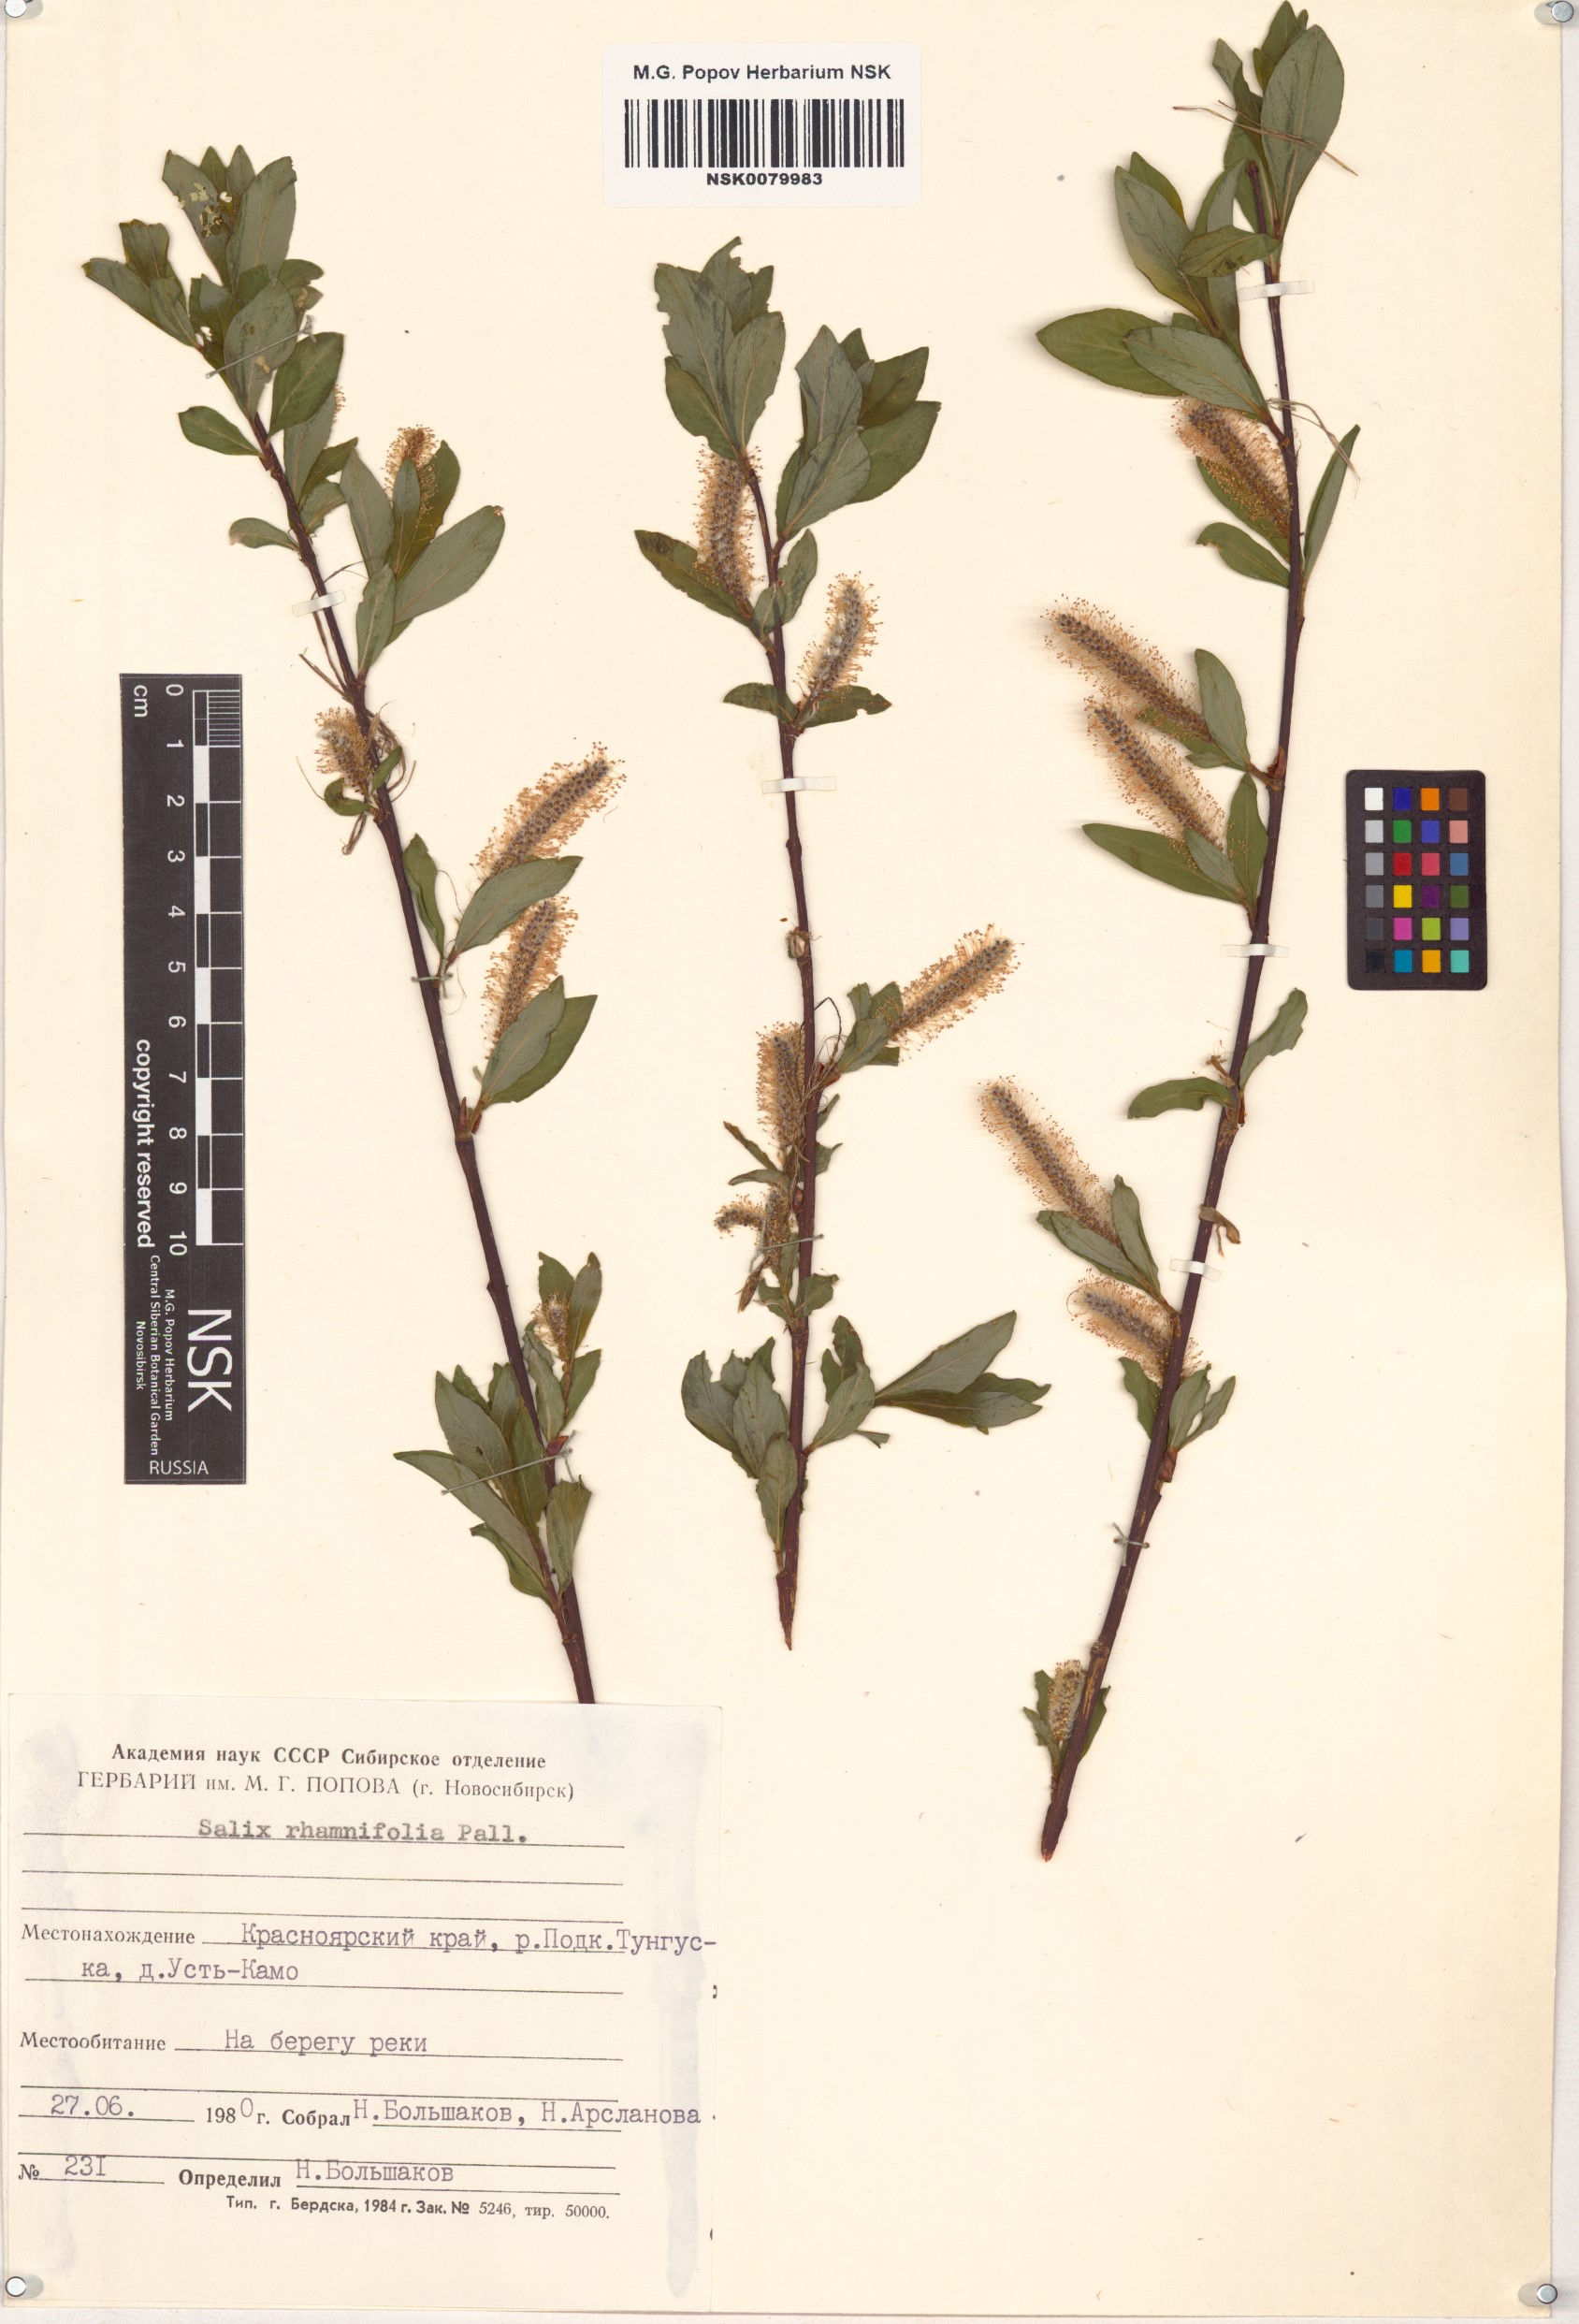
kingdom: Plantae
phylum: Tracheophyta
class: Magnoliopsida
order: Malpighiales
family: Salicaceae
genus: Salix
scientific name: Salix rhamnifolia
